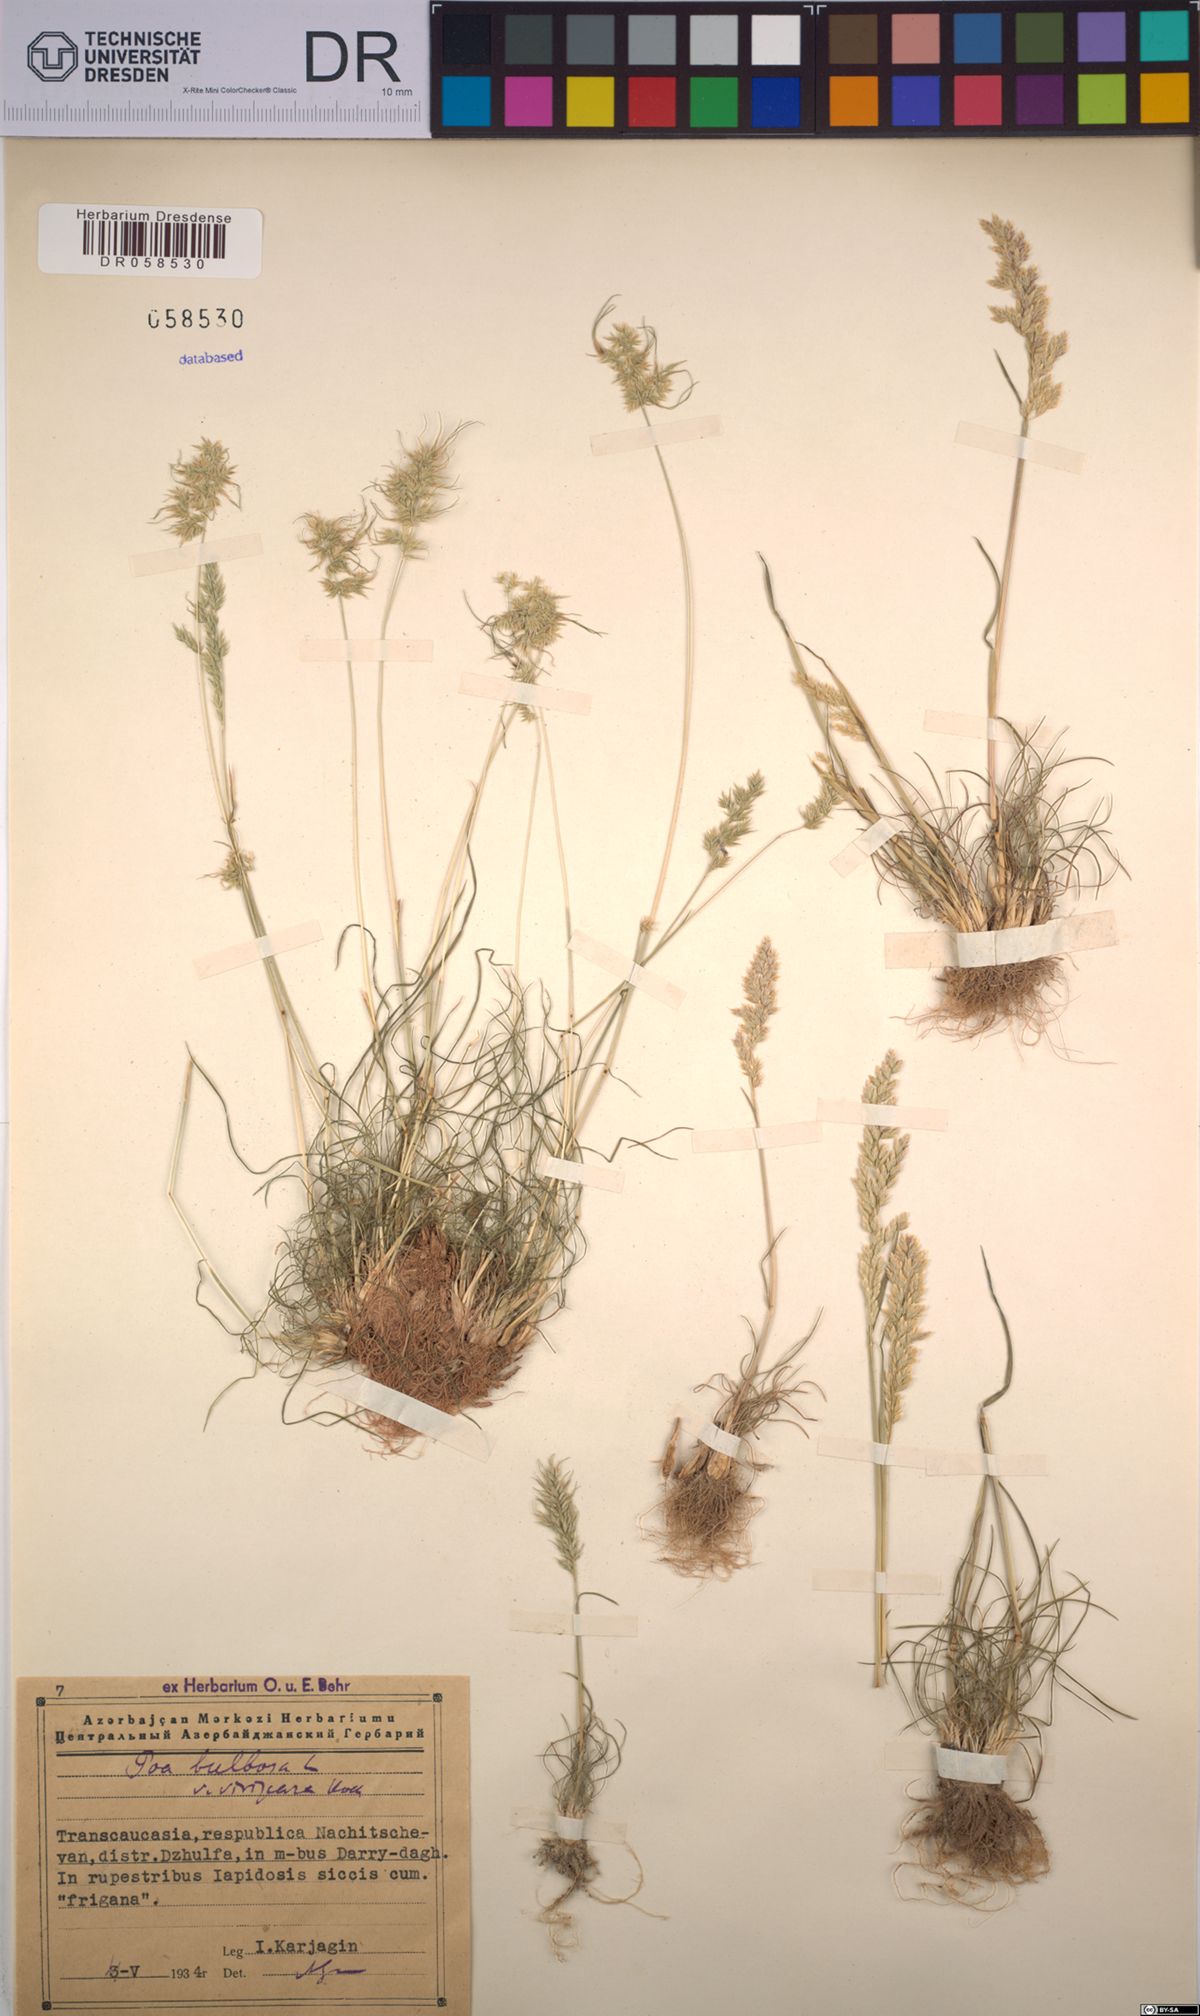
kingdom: Plantae
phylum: Tracheophyta
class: Liliopsida
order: Poales
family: Poaceae
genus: Poa
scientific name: Poa bulbosa
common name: Bulbous bluegrass
